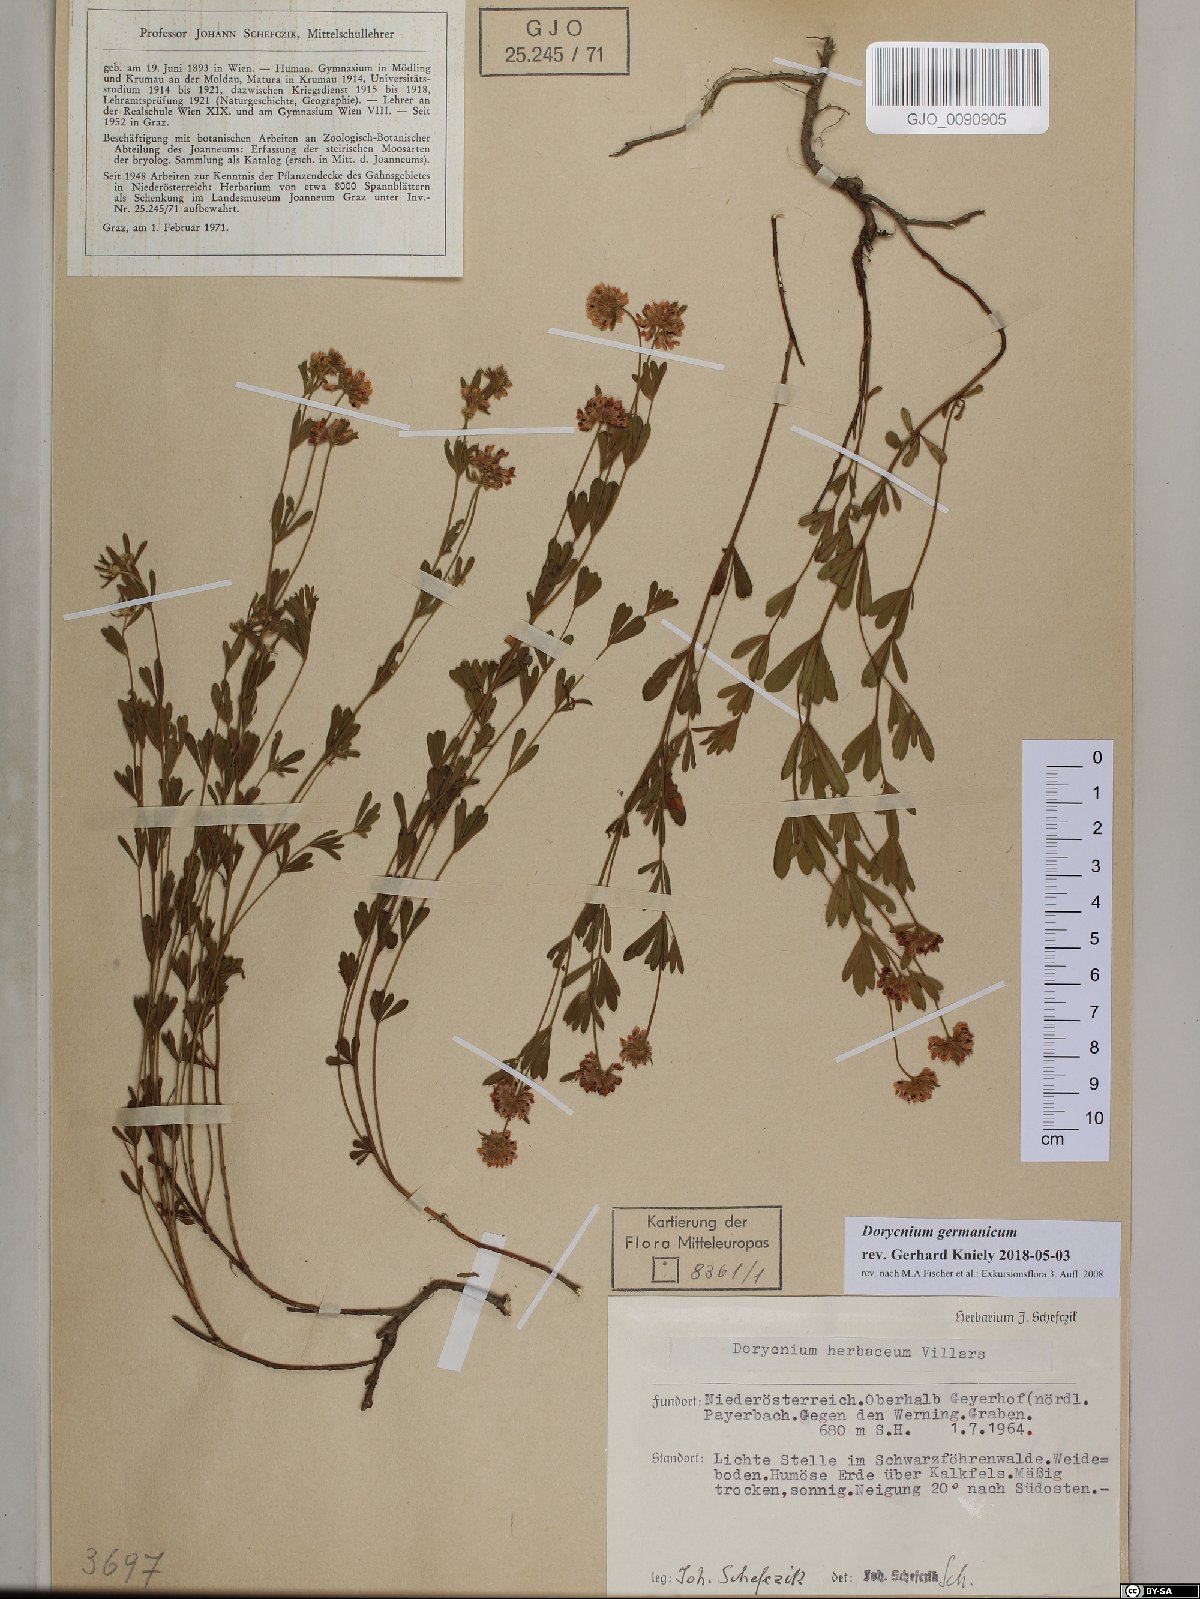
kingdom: Plantae
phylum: Tracheophyta
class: Magnoliopsida
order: Fabales
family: Fabaceae
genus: Lotus
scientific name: Lotus germanicus
